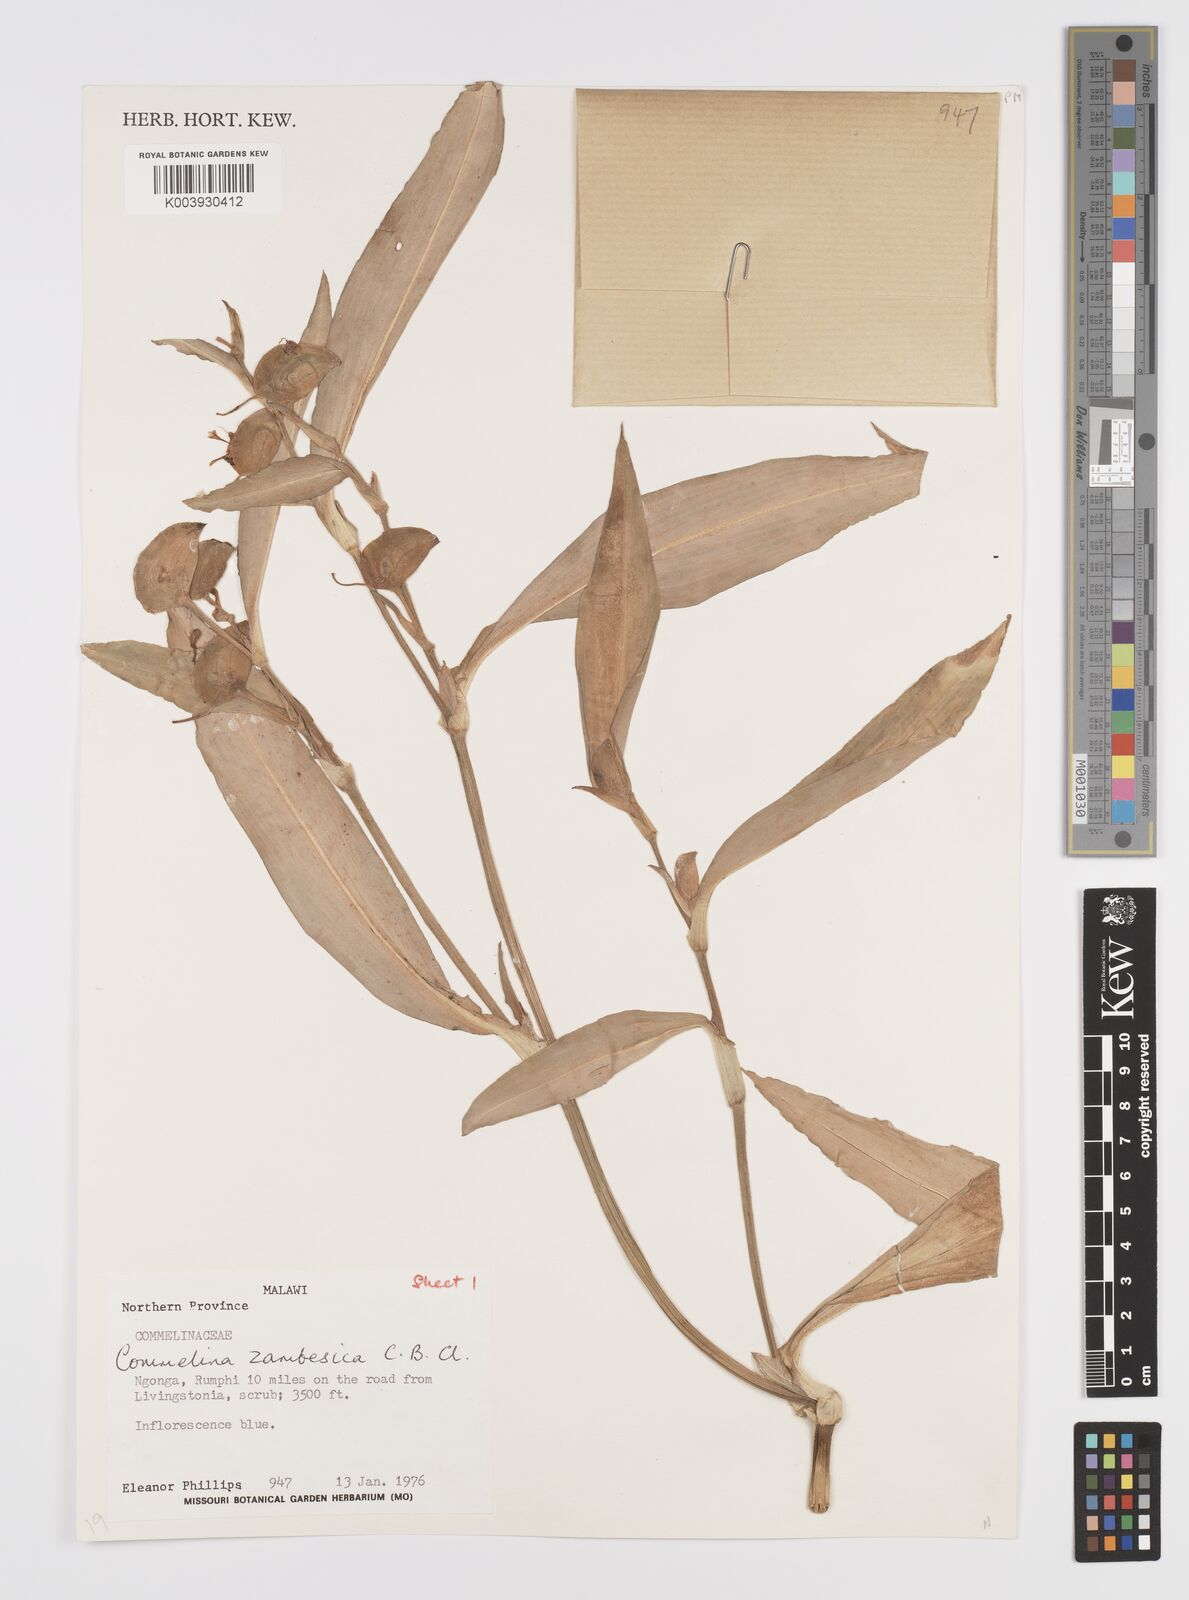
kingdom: Plantae
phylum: Tracheophyta
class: Liliopsida
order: Commelinales
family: Commelinaceae
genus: Commelina
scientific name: Commelina zambesica
